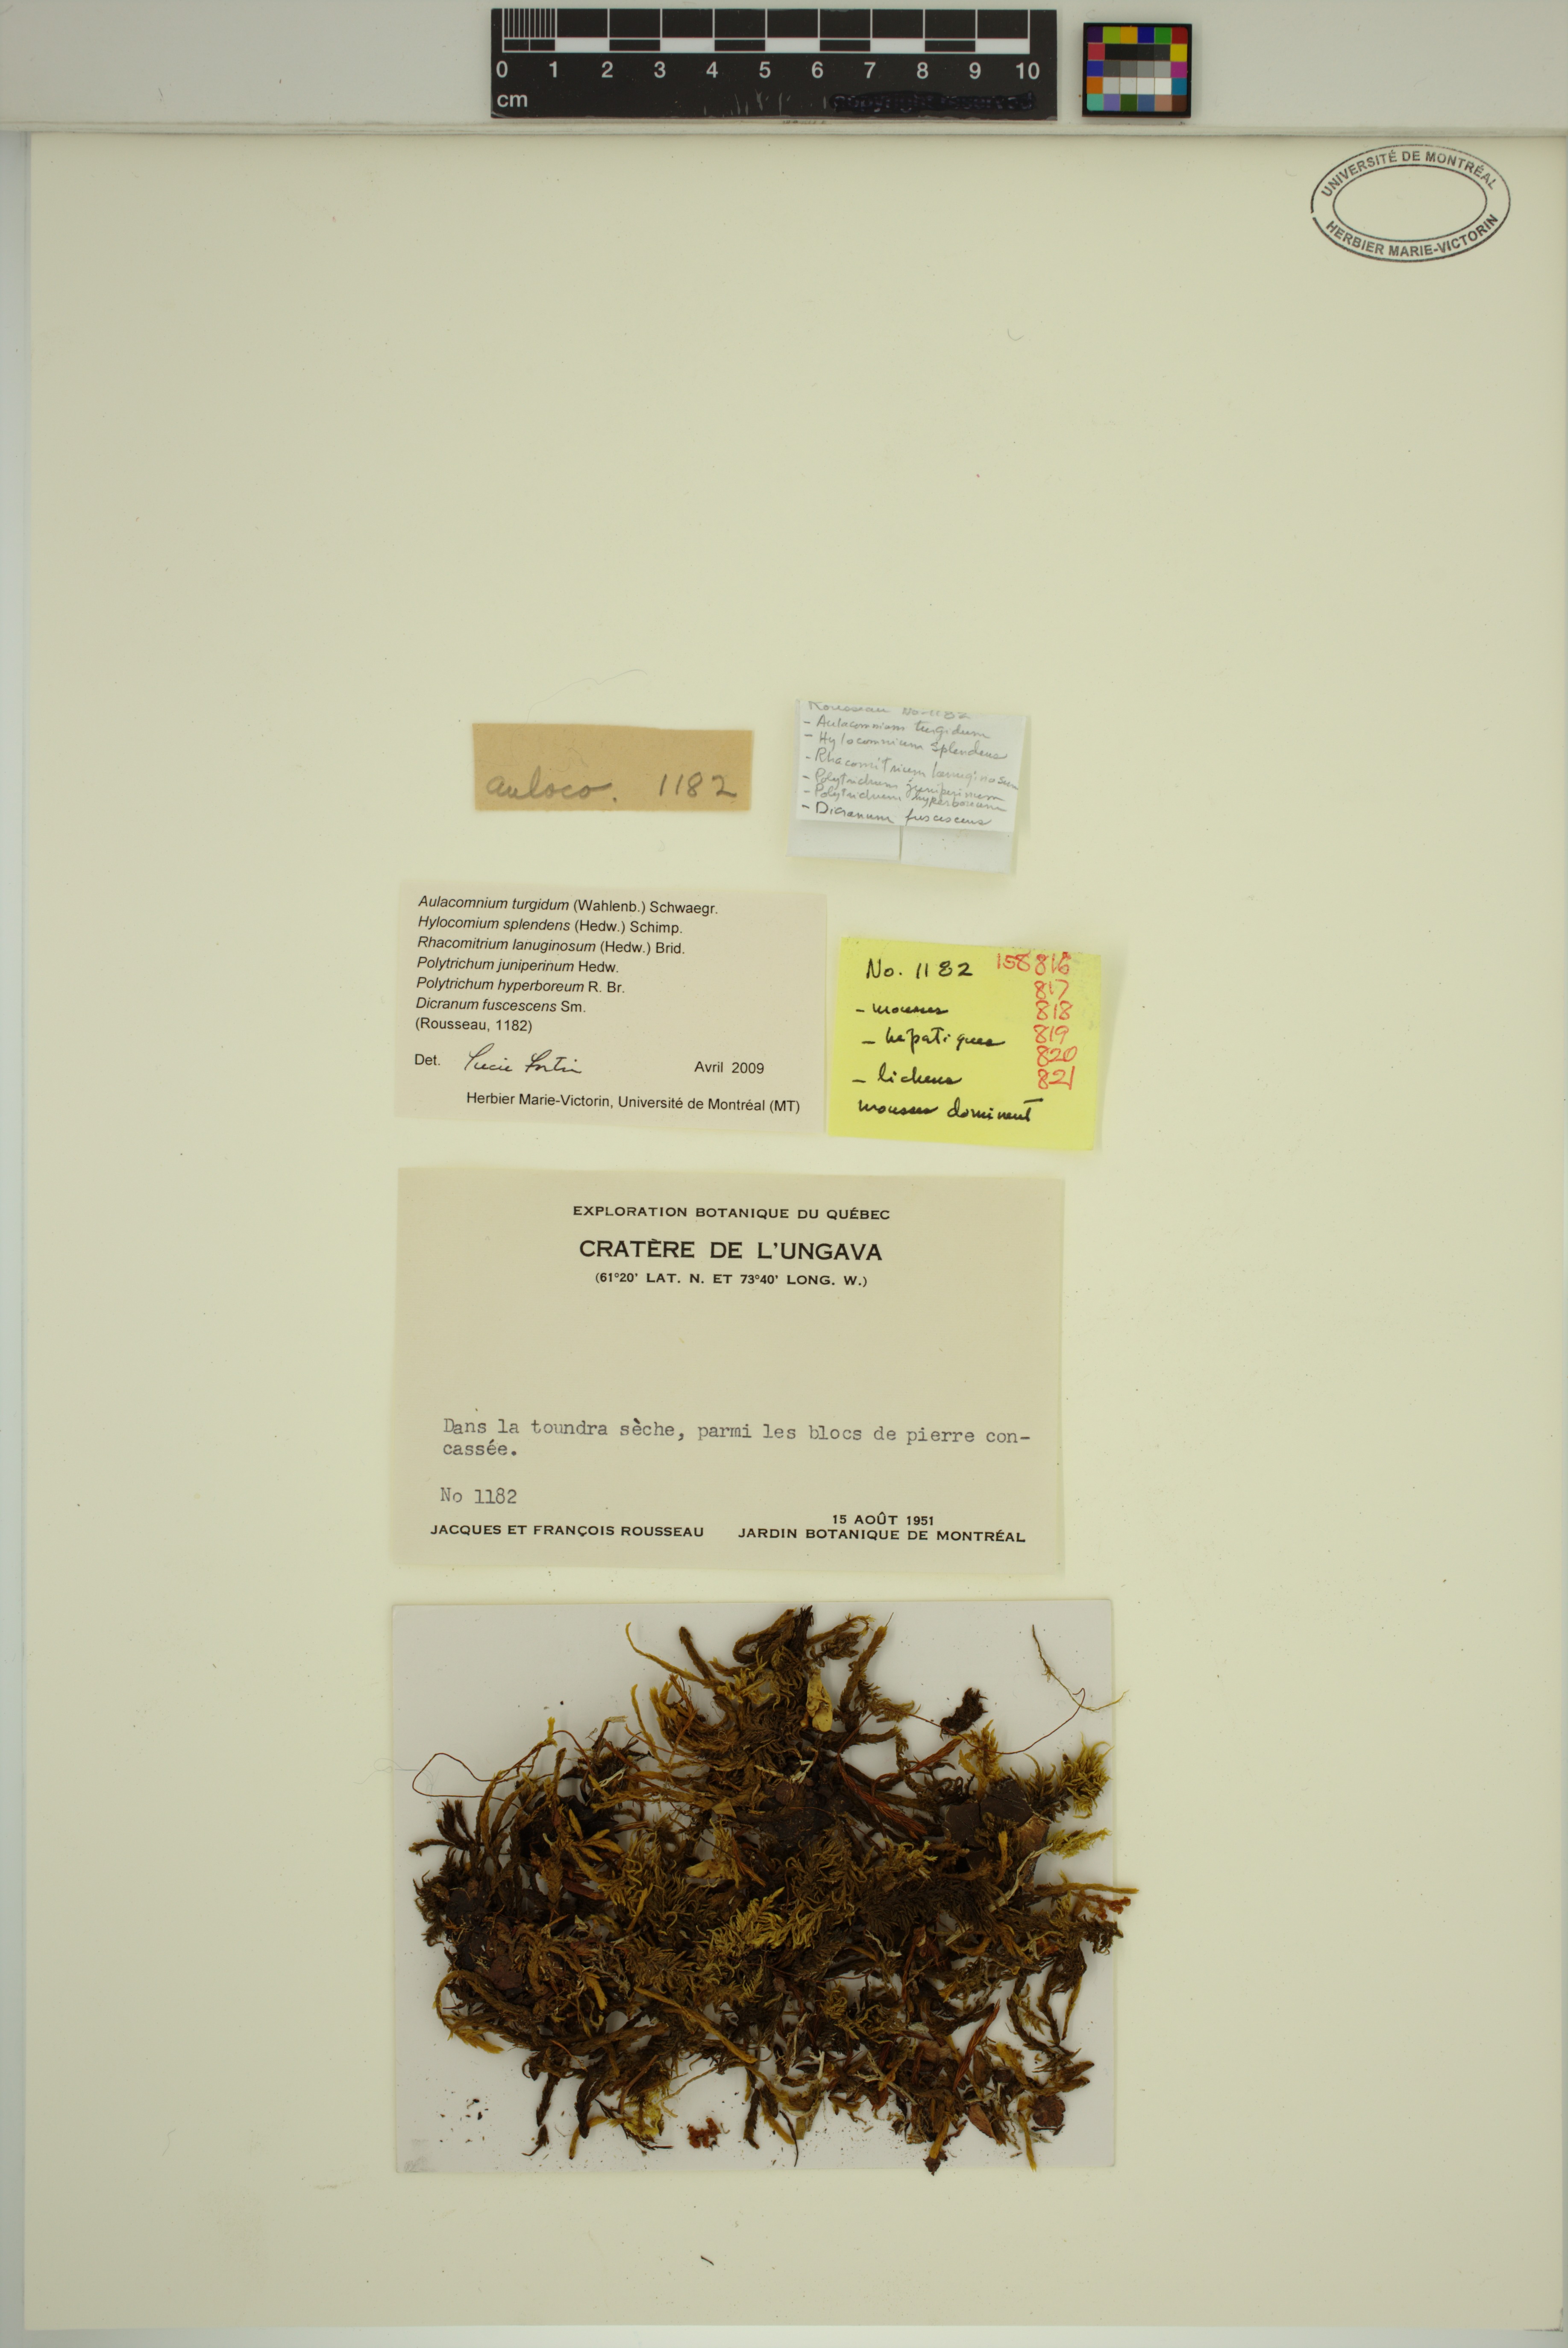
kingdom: Plantae
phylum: Bryophyta
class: Bryopsida
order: Hypnales
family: Hylocomiaceae
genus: Hylocomium
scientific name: Hylocomium splendens
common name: Stairstep moss
